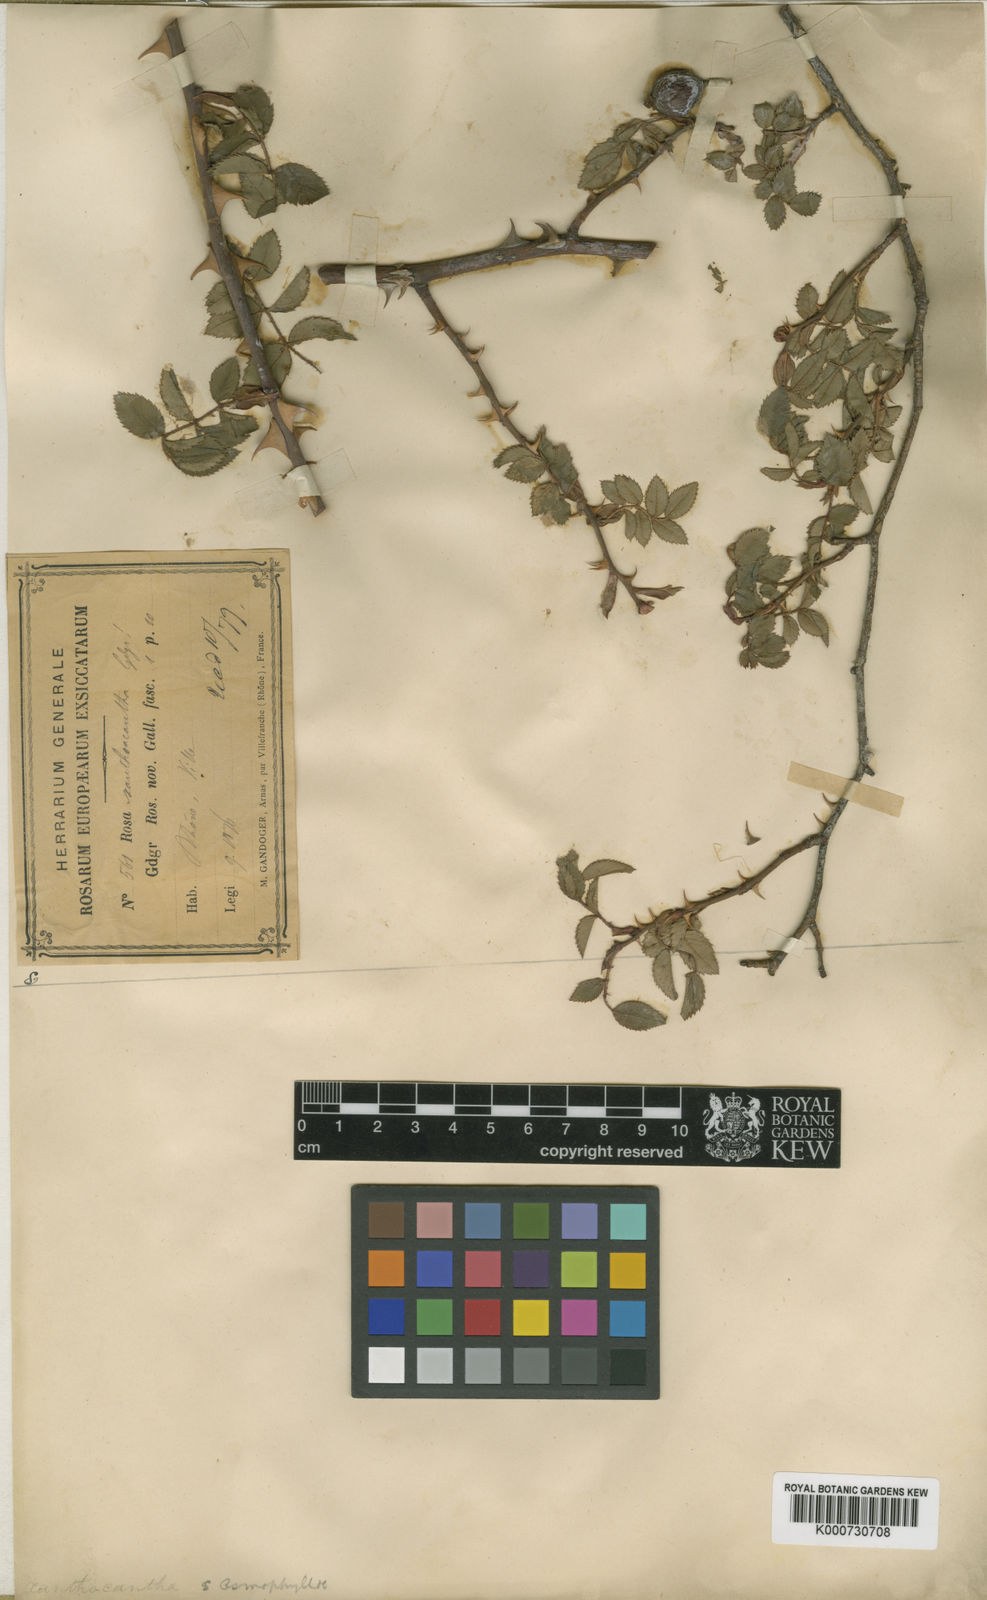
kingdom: Plantae
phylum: Tracheophyta
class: Magnoliopsida
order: Rosales
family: Rosaceae
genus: Rosa
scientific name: Rosa chavinii
